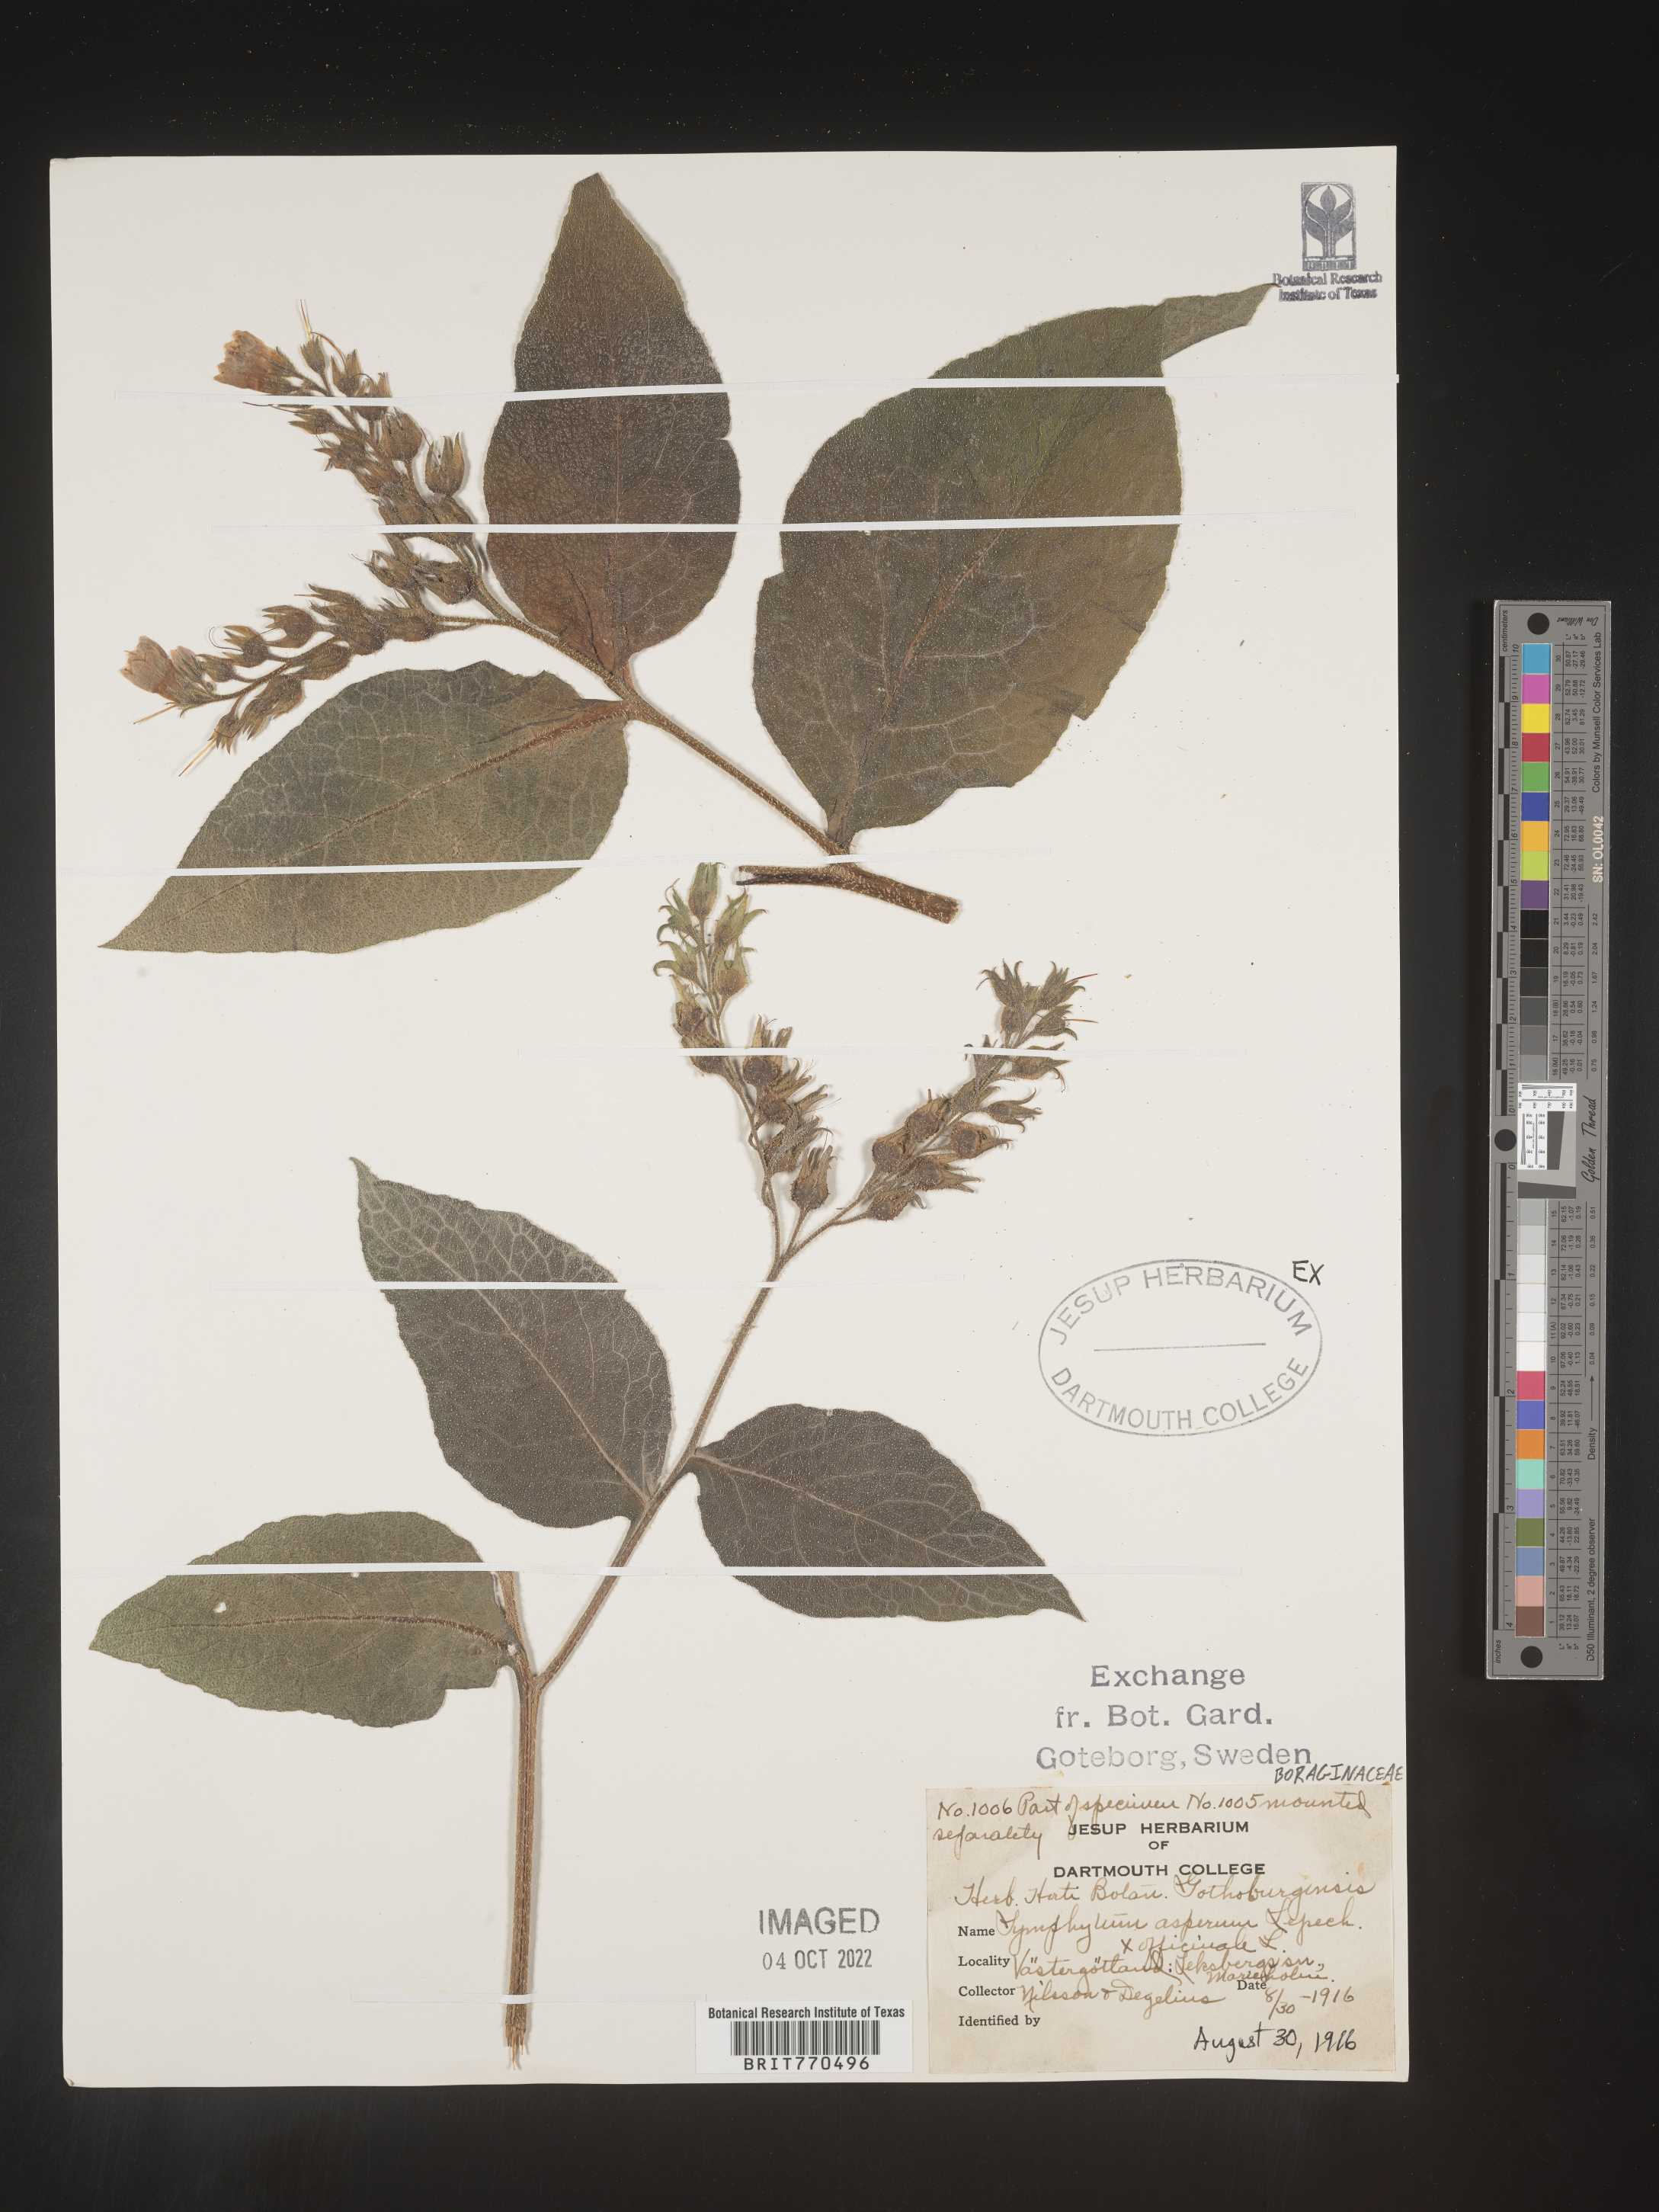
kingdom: Plantae
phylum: Tracheophyta
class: Magnoliopsida
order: Boraginales
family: Boraginaceae
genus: Symphytum
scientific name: Symphytum
